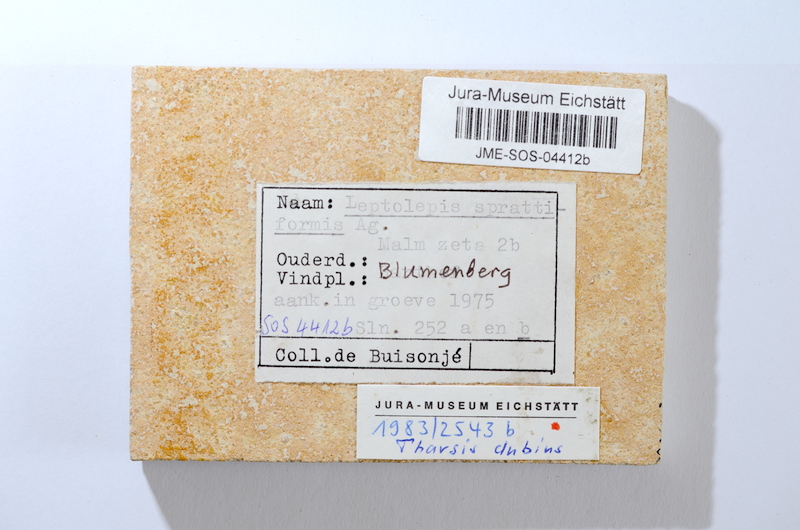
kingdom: Animalia
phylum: Chordata
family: Ascalaboidae
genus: Tharsis
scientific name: Tharsis dubius
